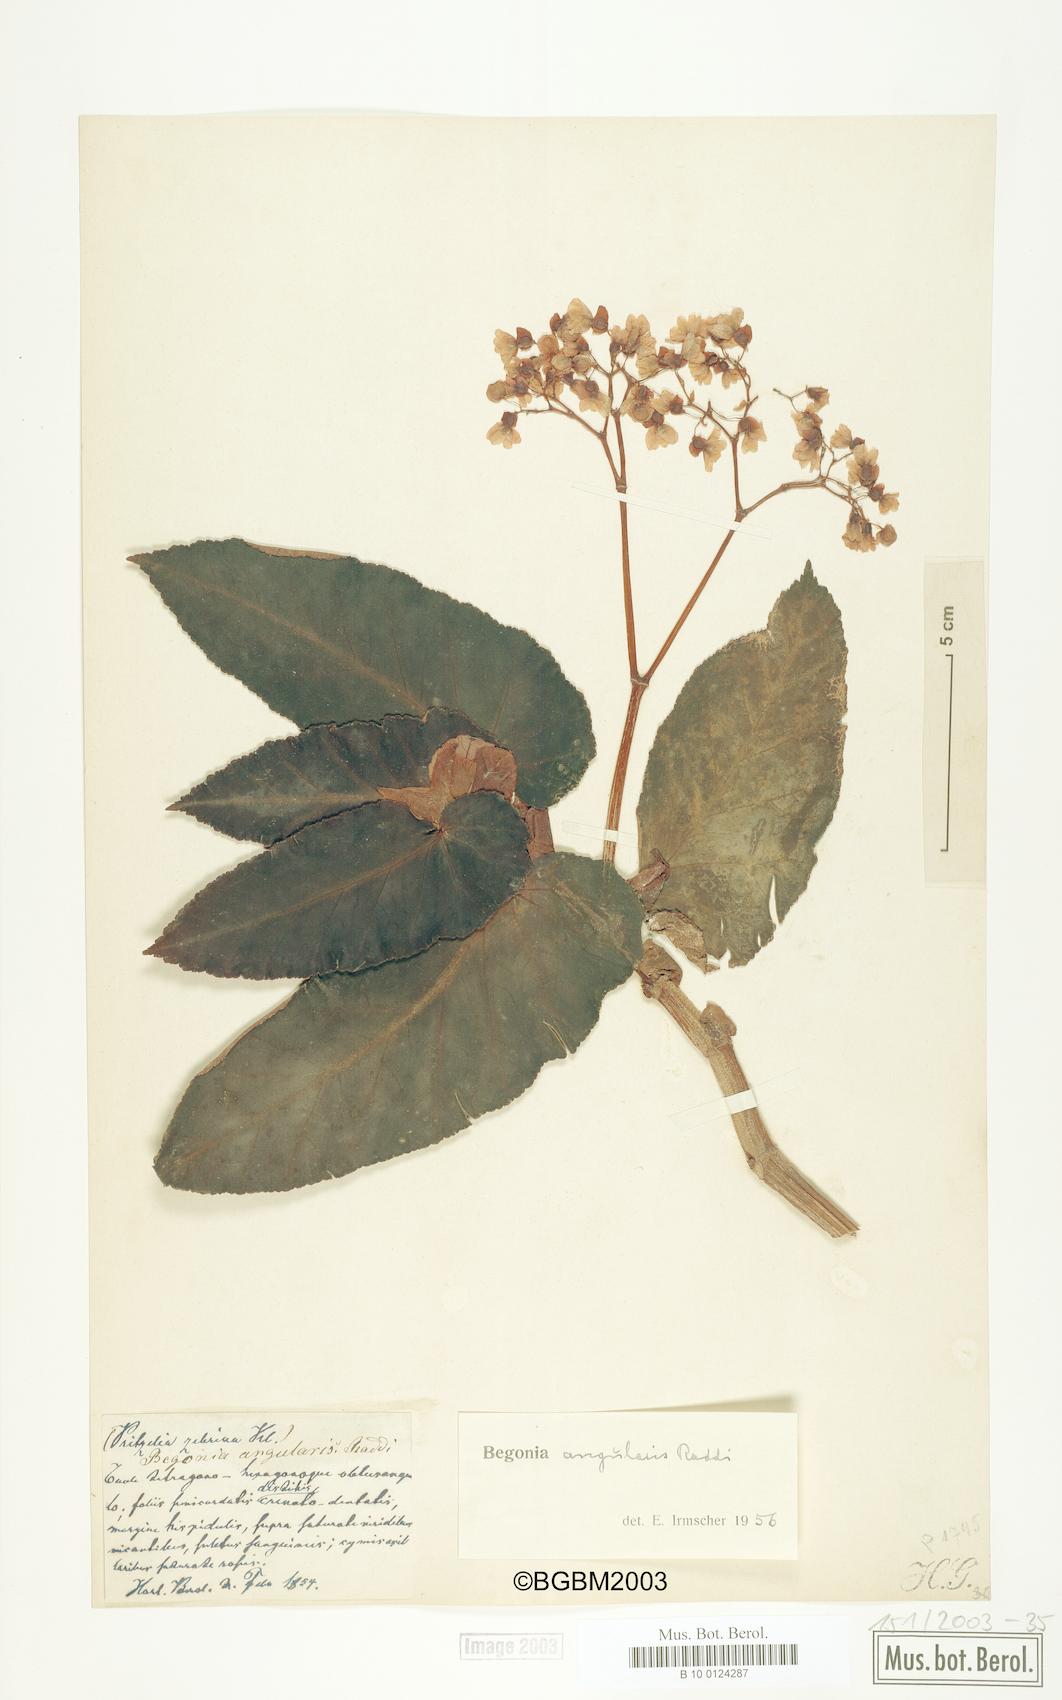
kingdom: Plantae
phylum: Tracheophyta
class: Magnoliopsida
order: Cucurbitales
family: Begoniaceae
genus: Begonia
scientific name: Begonia angularis
